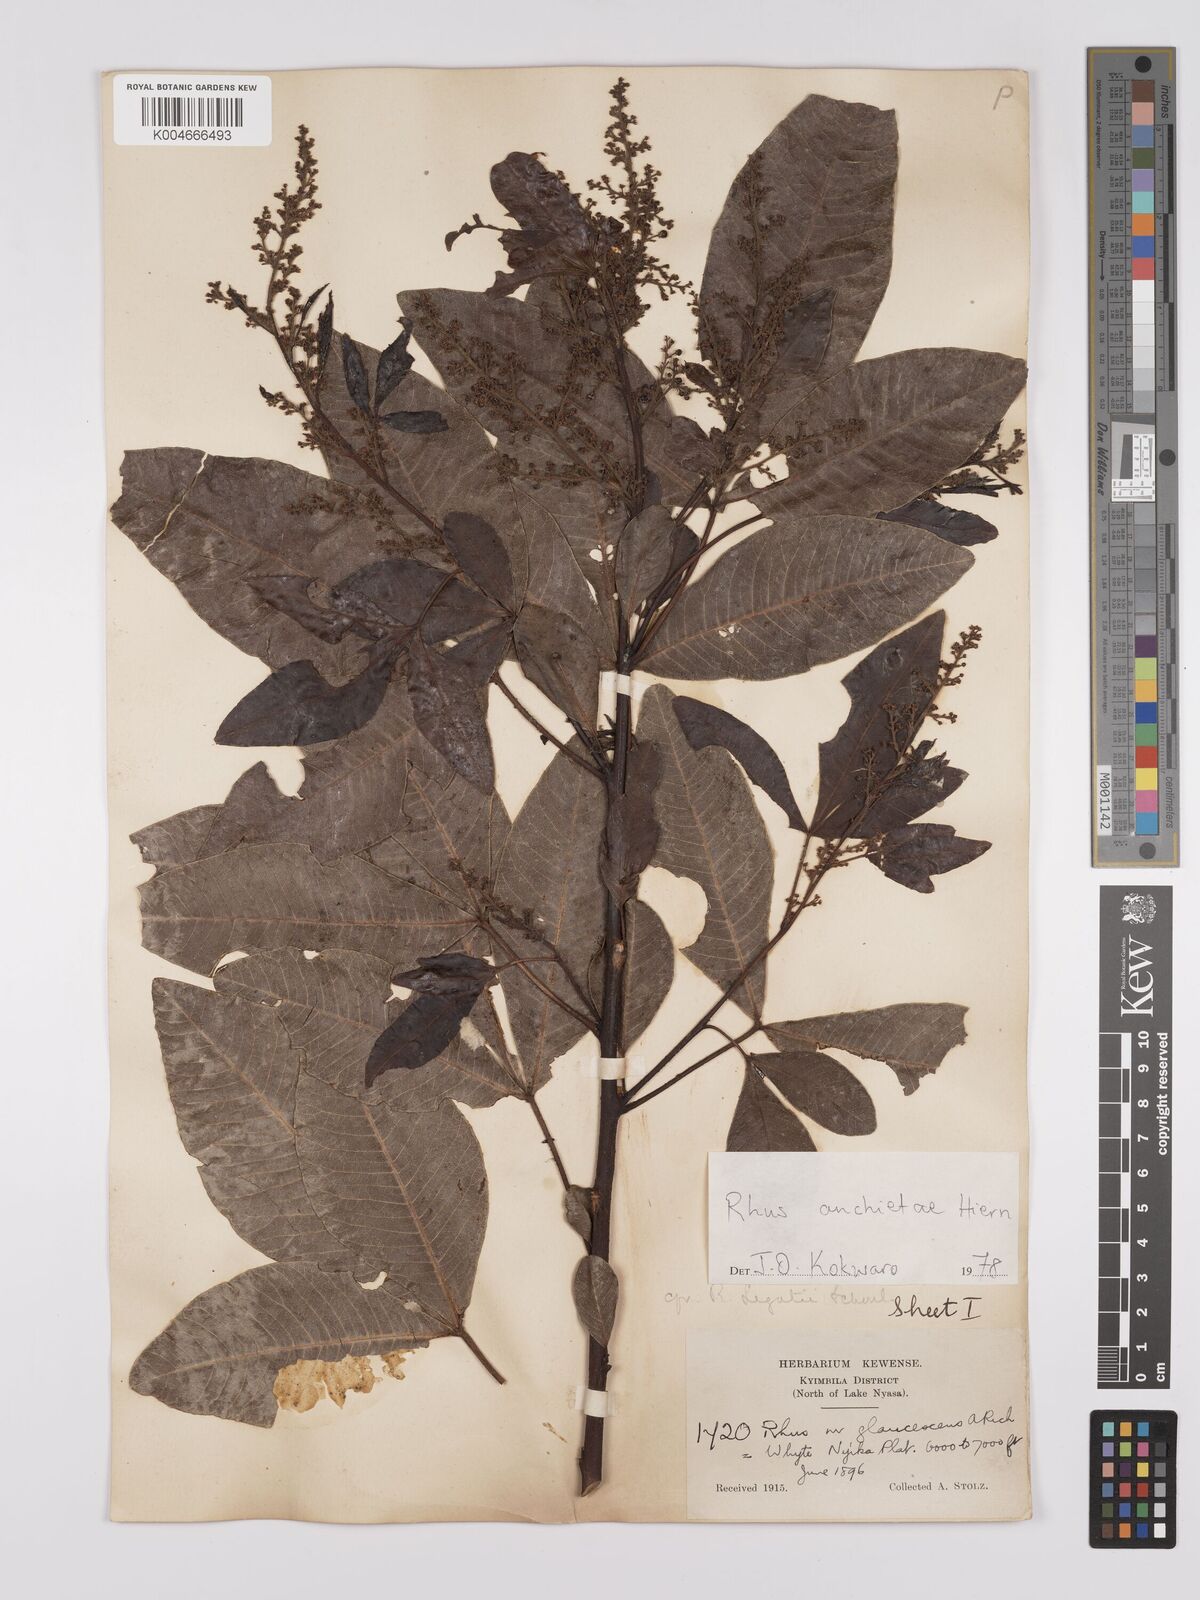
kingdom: Plantae
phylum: Tracheophyta
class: Magnoliopsida
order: Sapindales
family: Anacardiaceae
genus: Searsia
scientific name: Searsia anchietae
